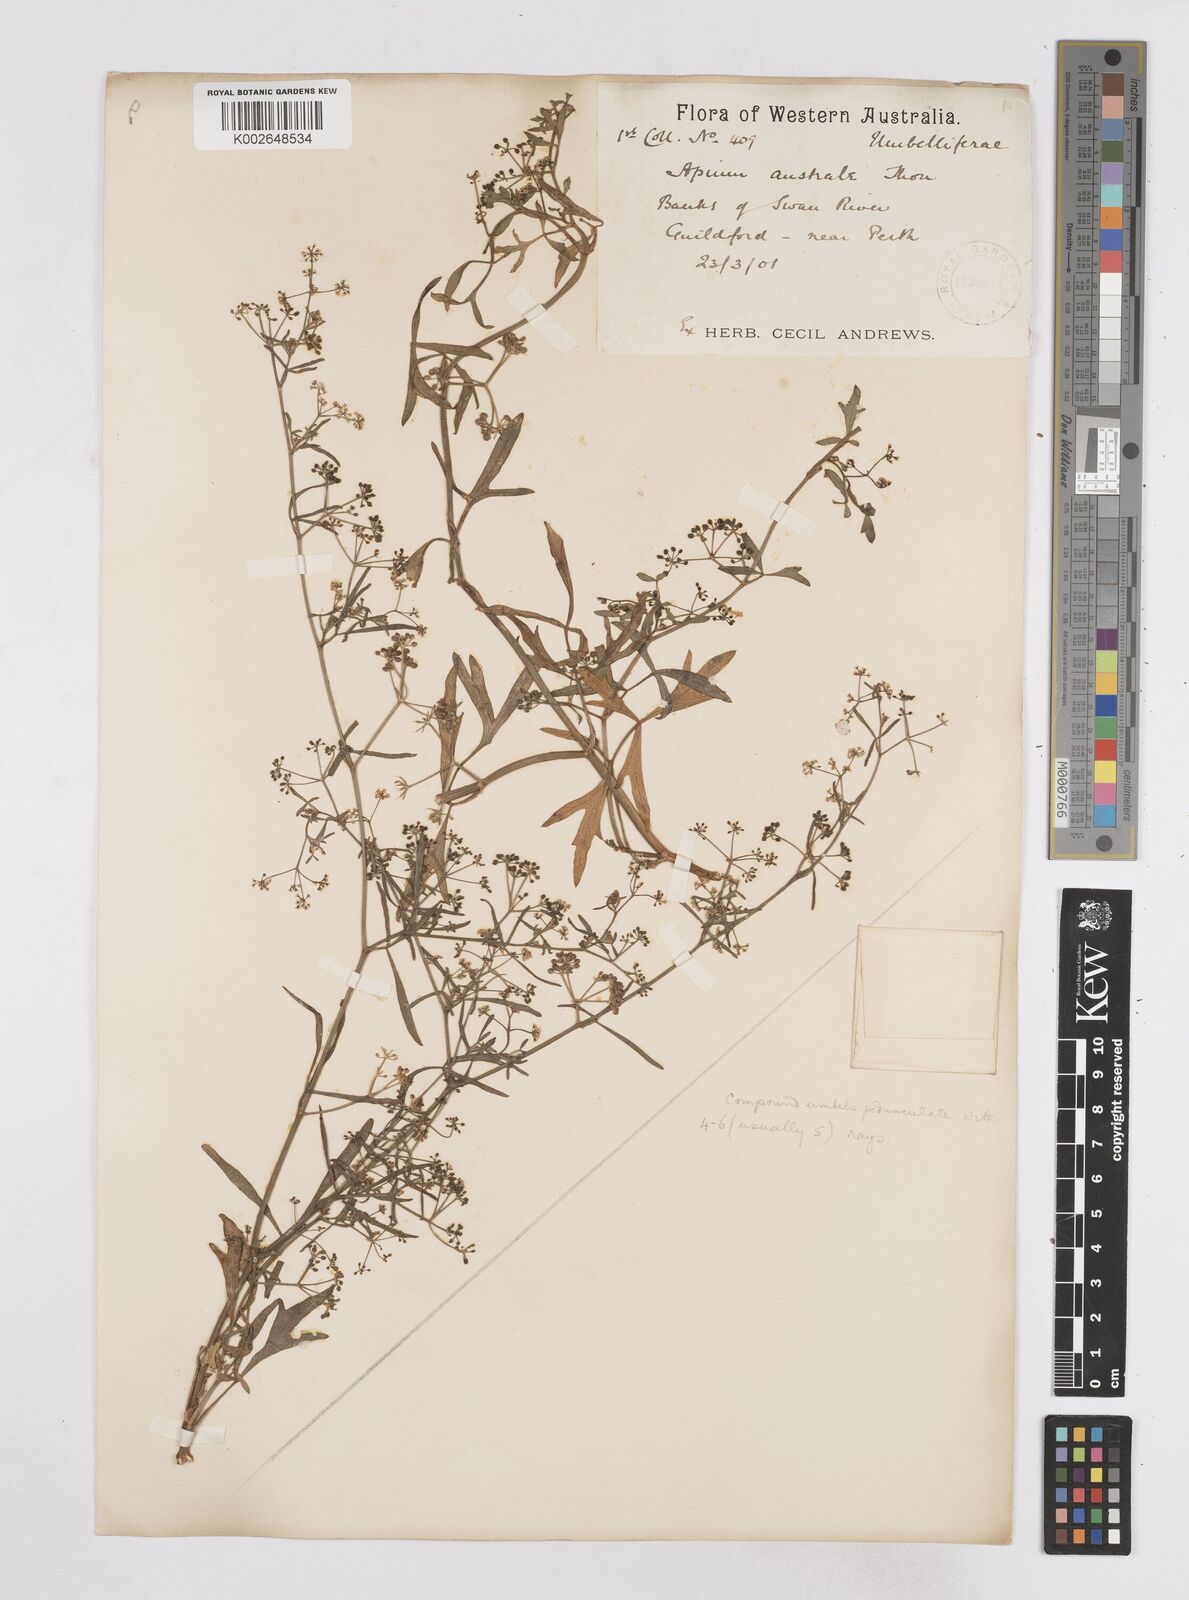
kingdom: Plantae
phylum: Tracheophyta
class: Magnoliopsida
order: Apiales
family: Apiaceae
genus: Apium
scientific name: Apium prostratum
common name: Prostrate marshwort
